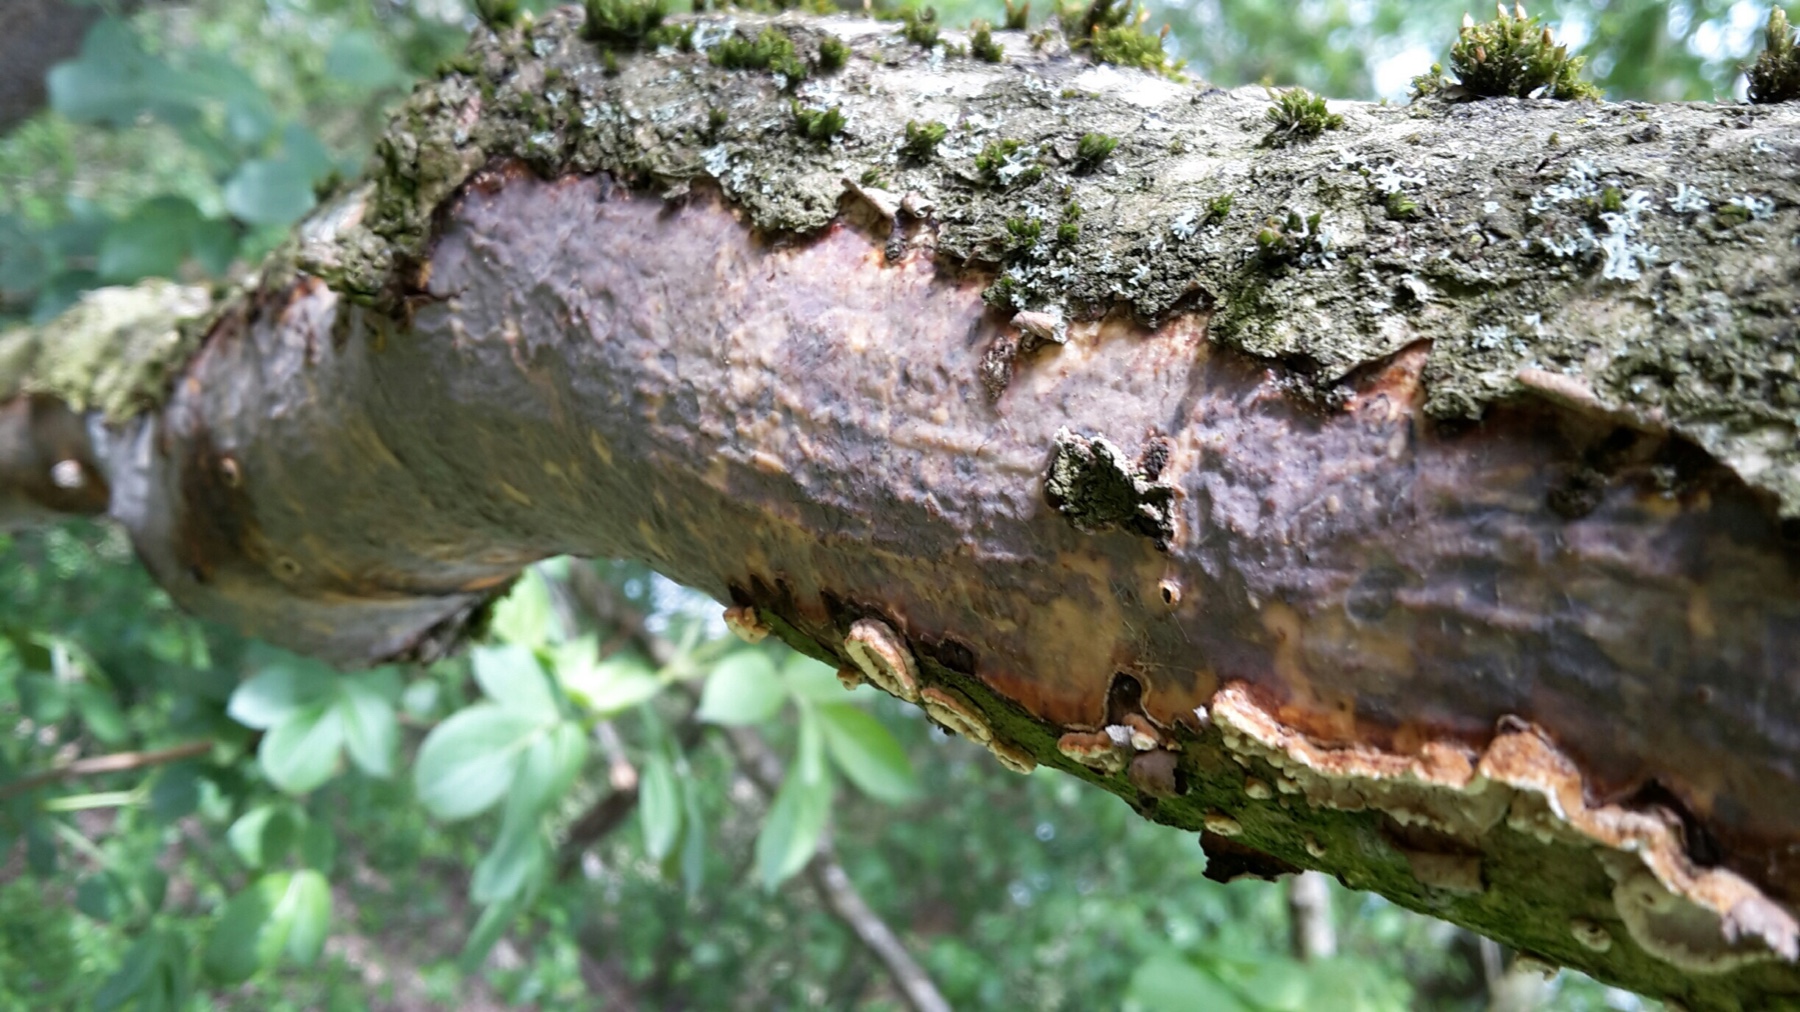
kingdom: Fungi
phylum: Basidiomycota
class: Agaricomycetes
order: Corticiales
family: Vuilleminiaceae
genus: Vuilleminia
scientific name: Vuilleminia comedens
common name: almindelig barksprænger
